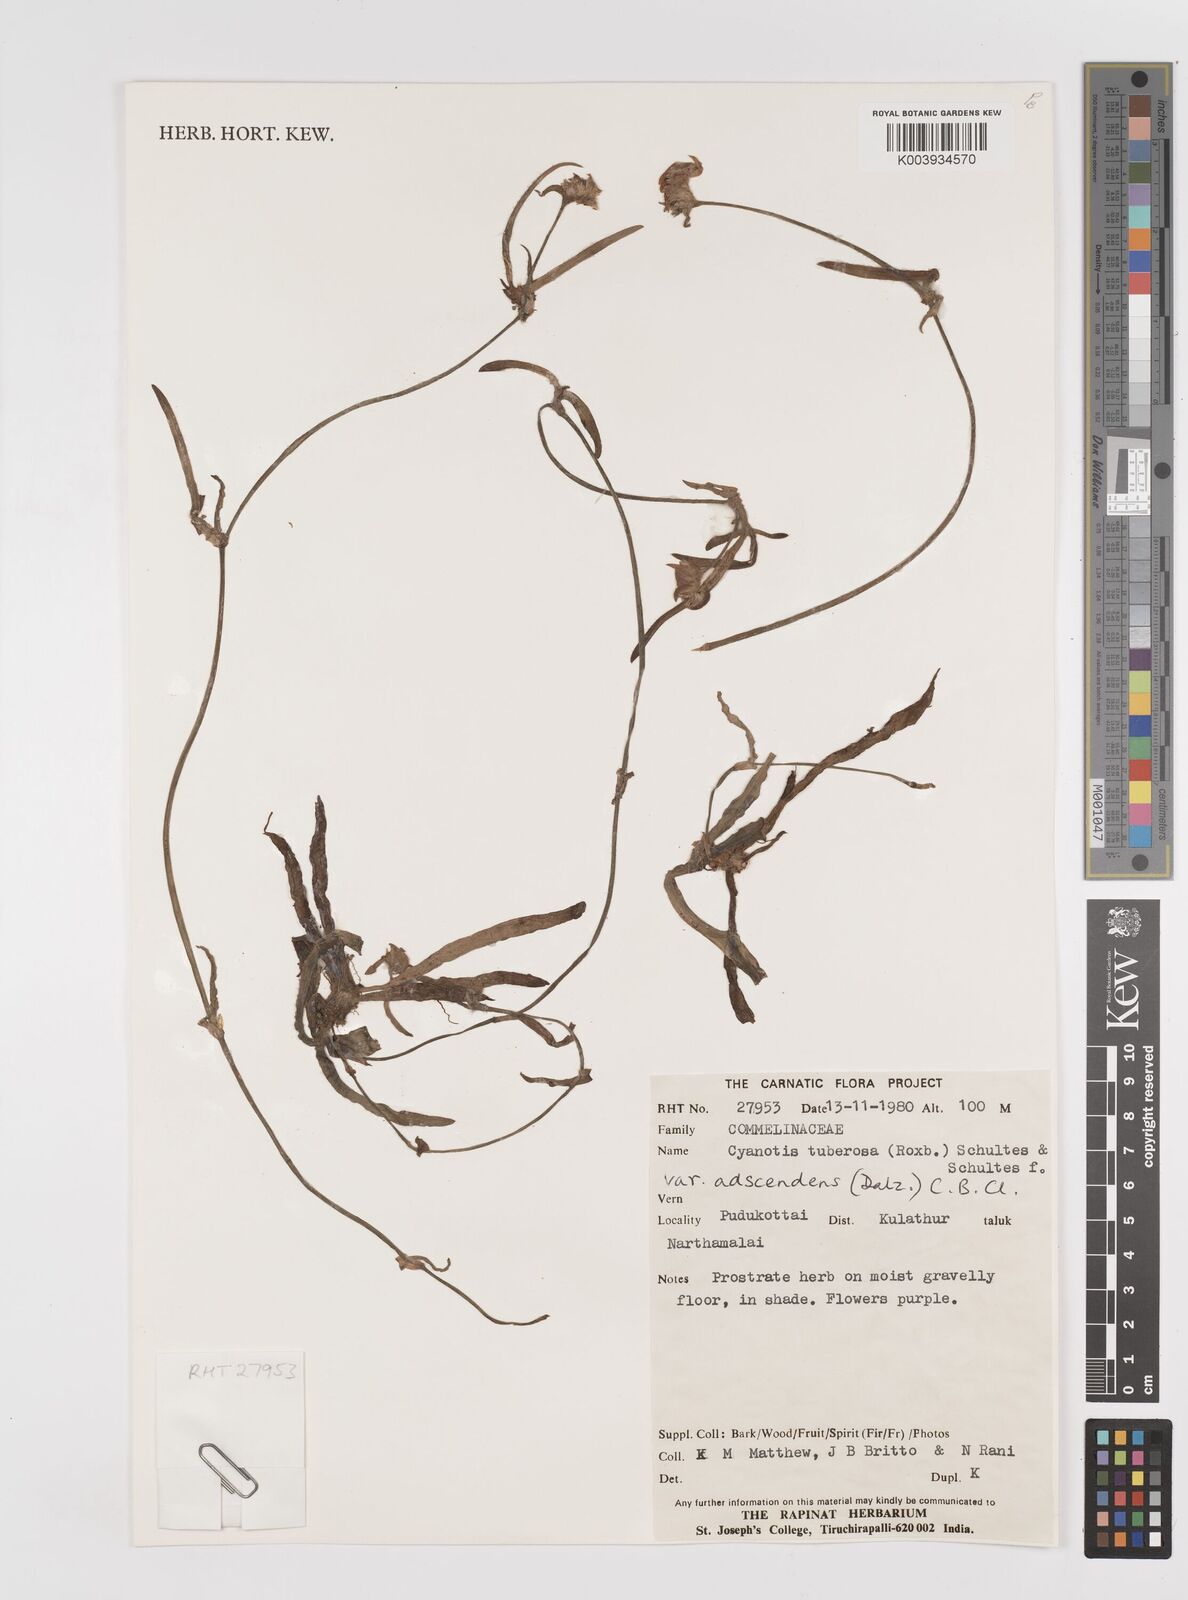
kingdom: Plantae
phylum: Tracheophyta
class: Liliopsida
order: Commelinales
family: Commelinaceae
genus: Cyanotis
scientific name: Cyanotis tuberosa
